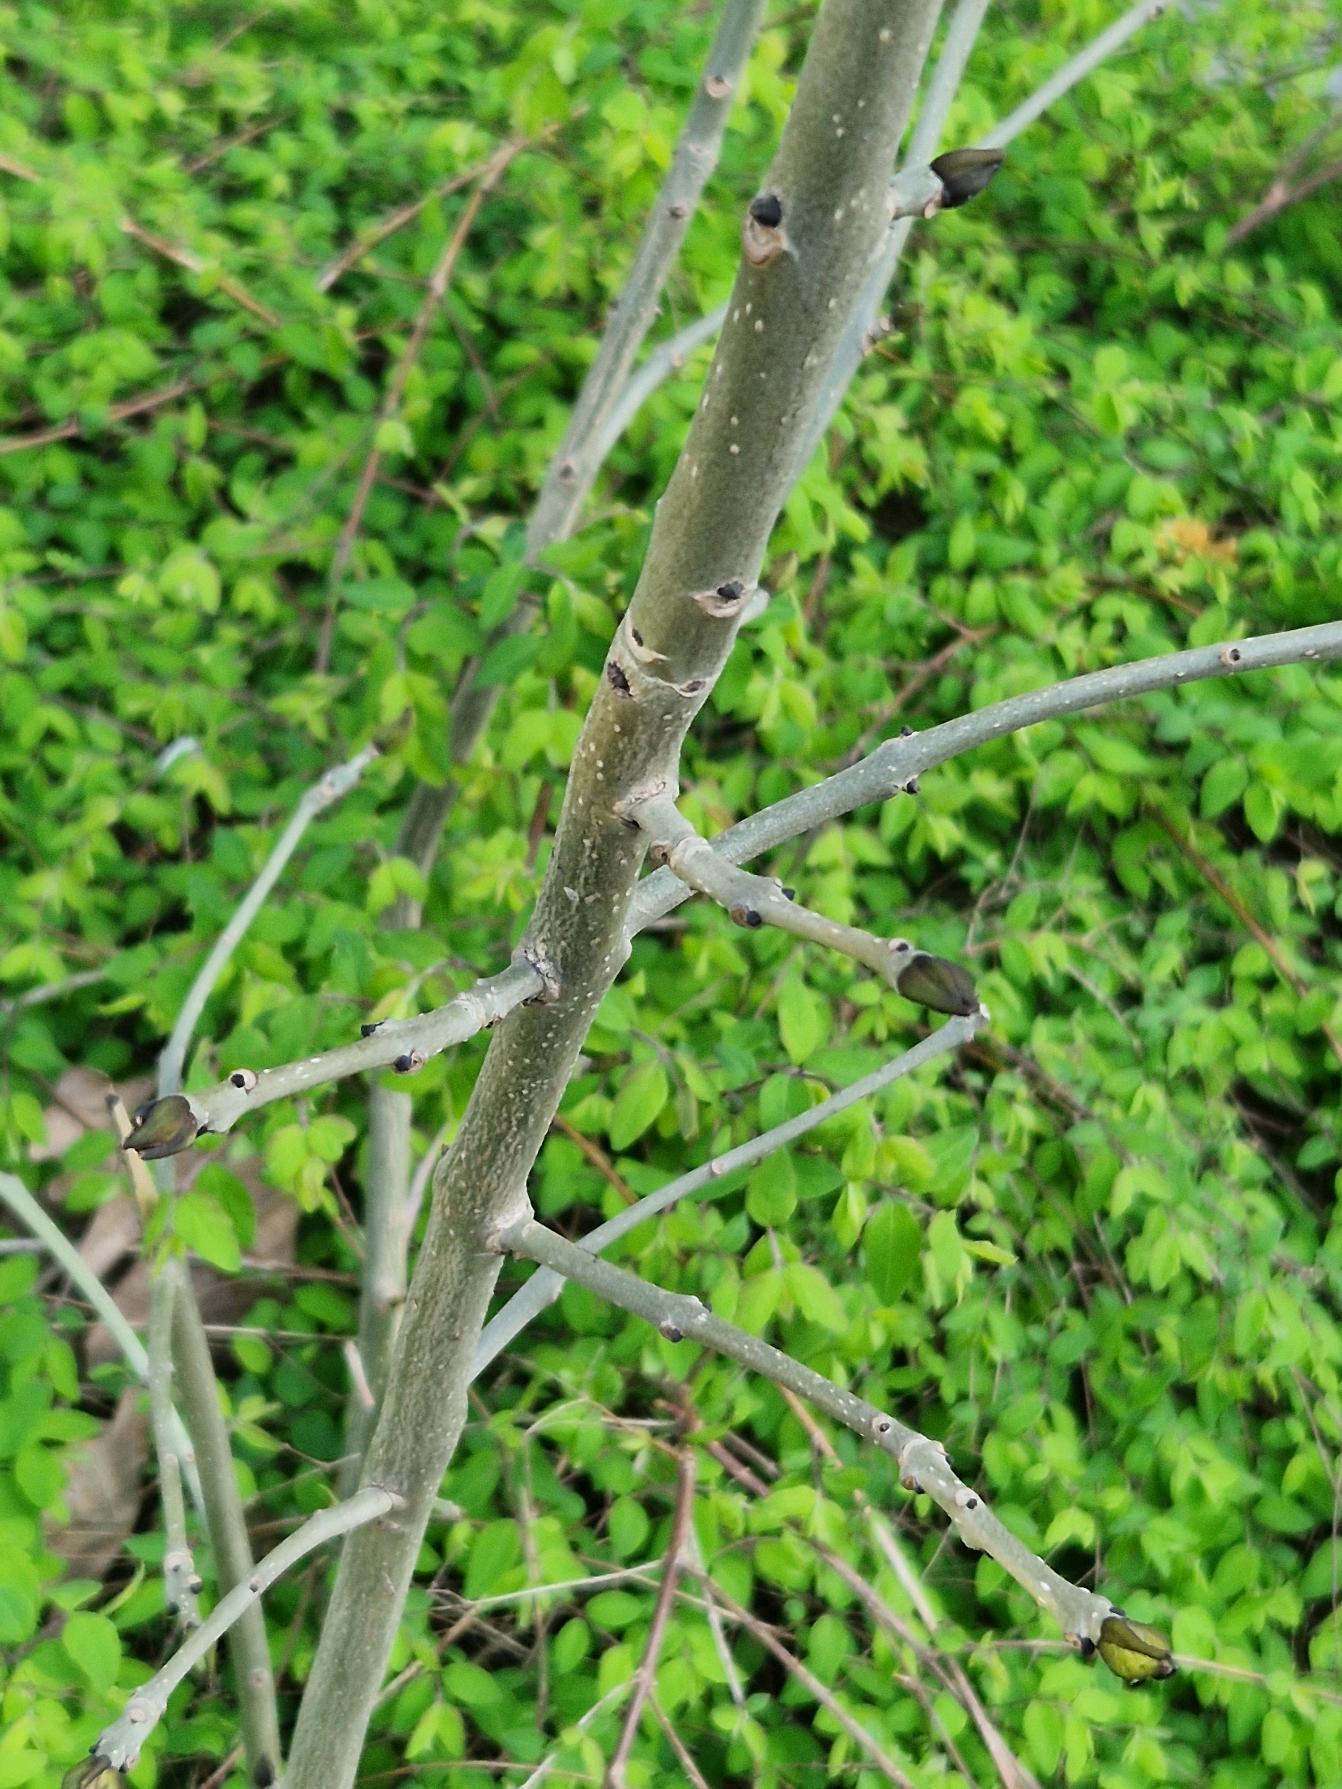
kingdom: Plantae
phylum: Tracheophyta
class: Magnoliopsida
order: Lamiales
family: Oleaceae
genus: Fraxinus
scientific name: Fraxinus excelsior
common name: Ask
